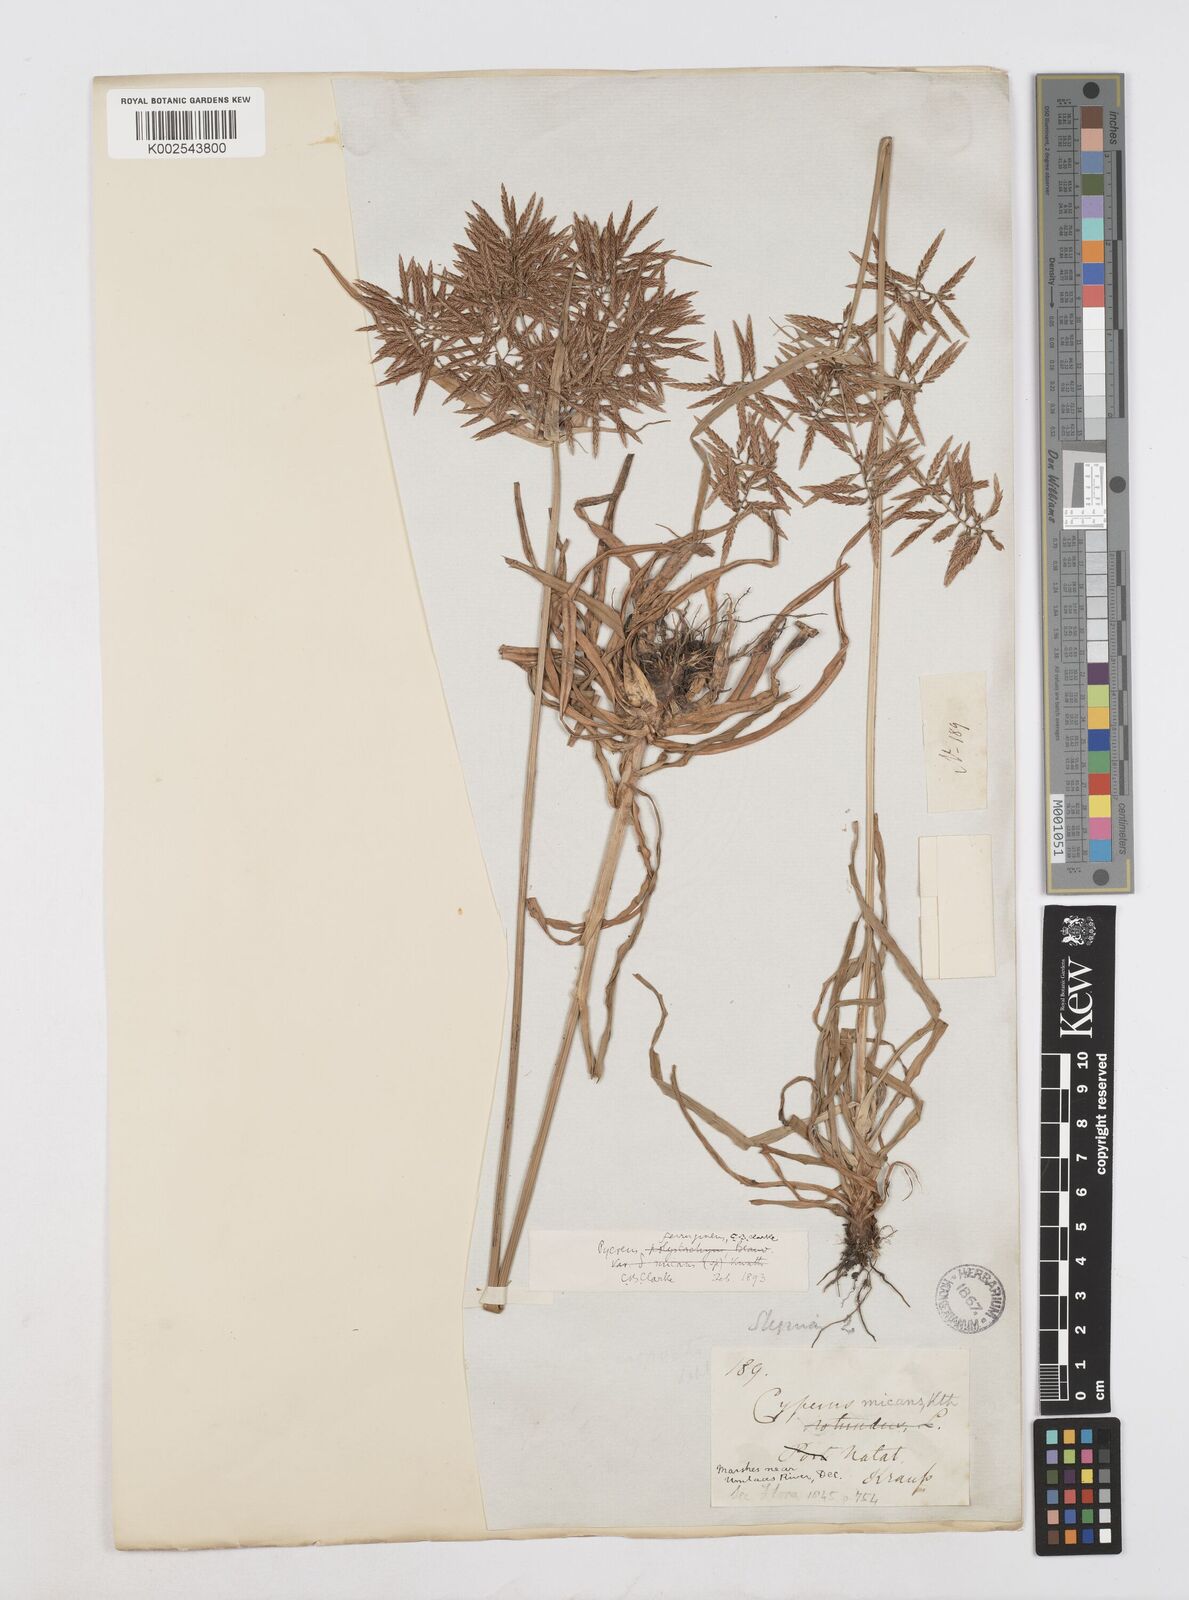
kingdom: Plantae
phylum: Tracheophyta
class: Liliopsida
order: Poales
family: Cyperaceae
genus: Cyperus
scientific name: Cyperus intactus
